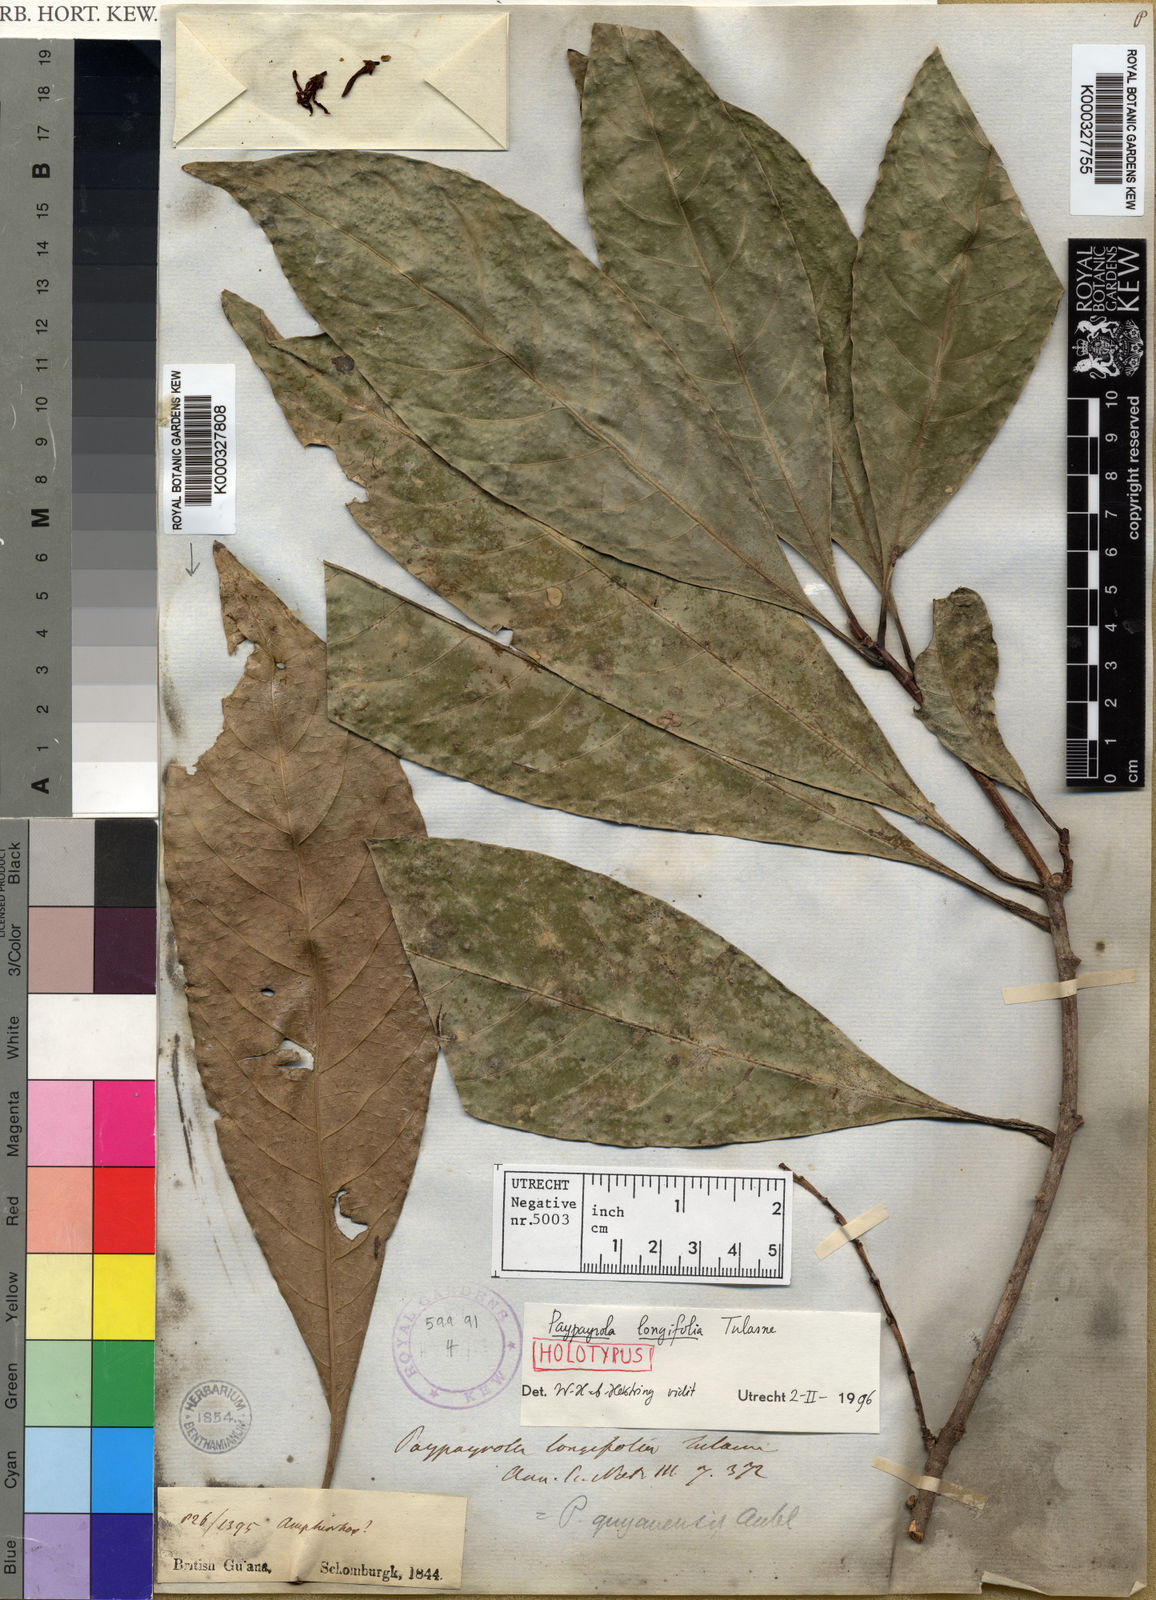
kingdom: Plantae
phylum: Tracheophyta
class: Magnoliopsida
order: Malpighiales
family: Violaceae
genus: Paypayrola
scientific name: Paypayrola longifolia
